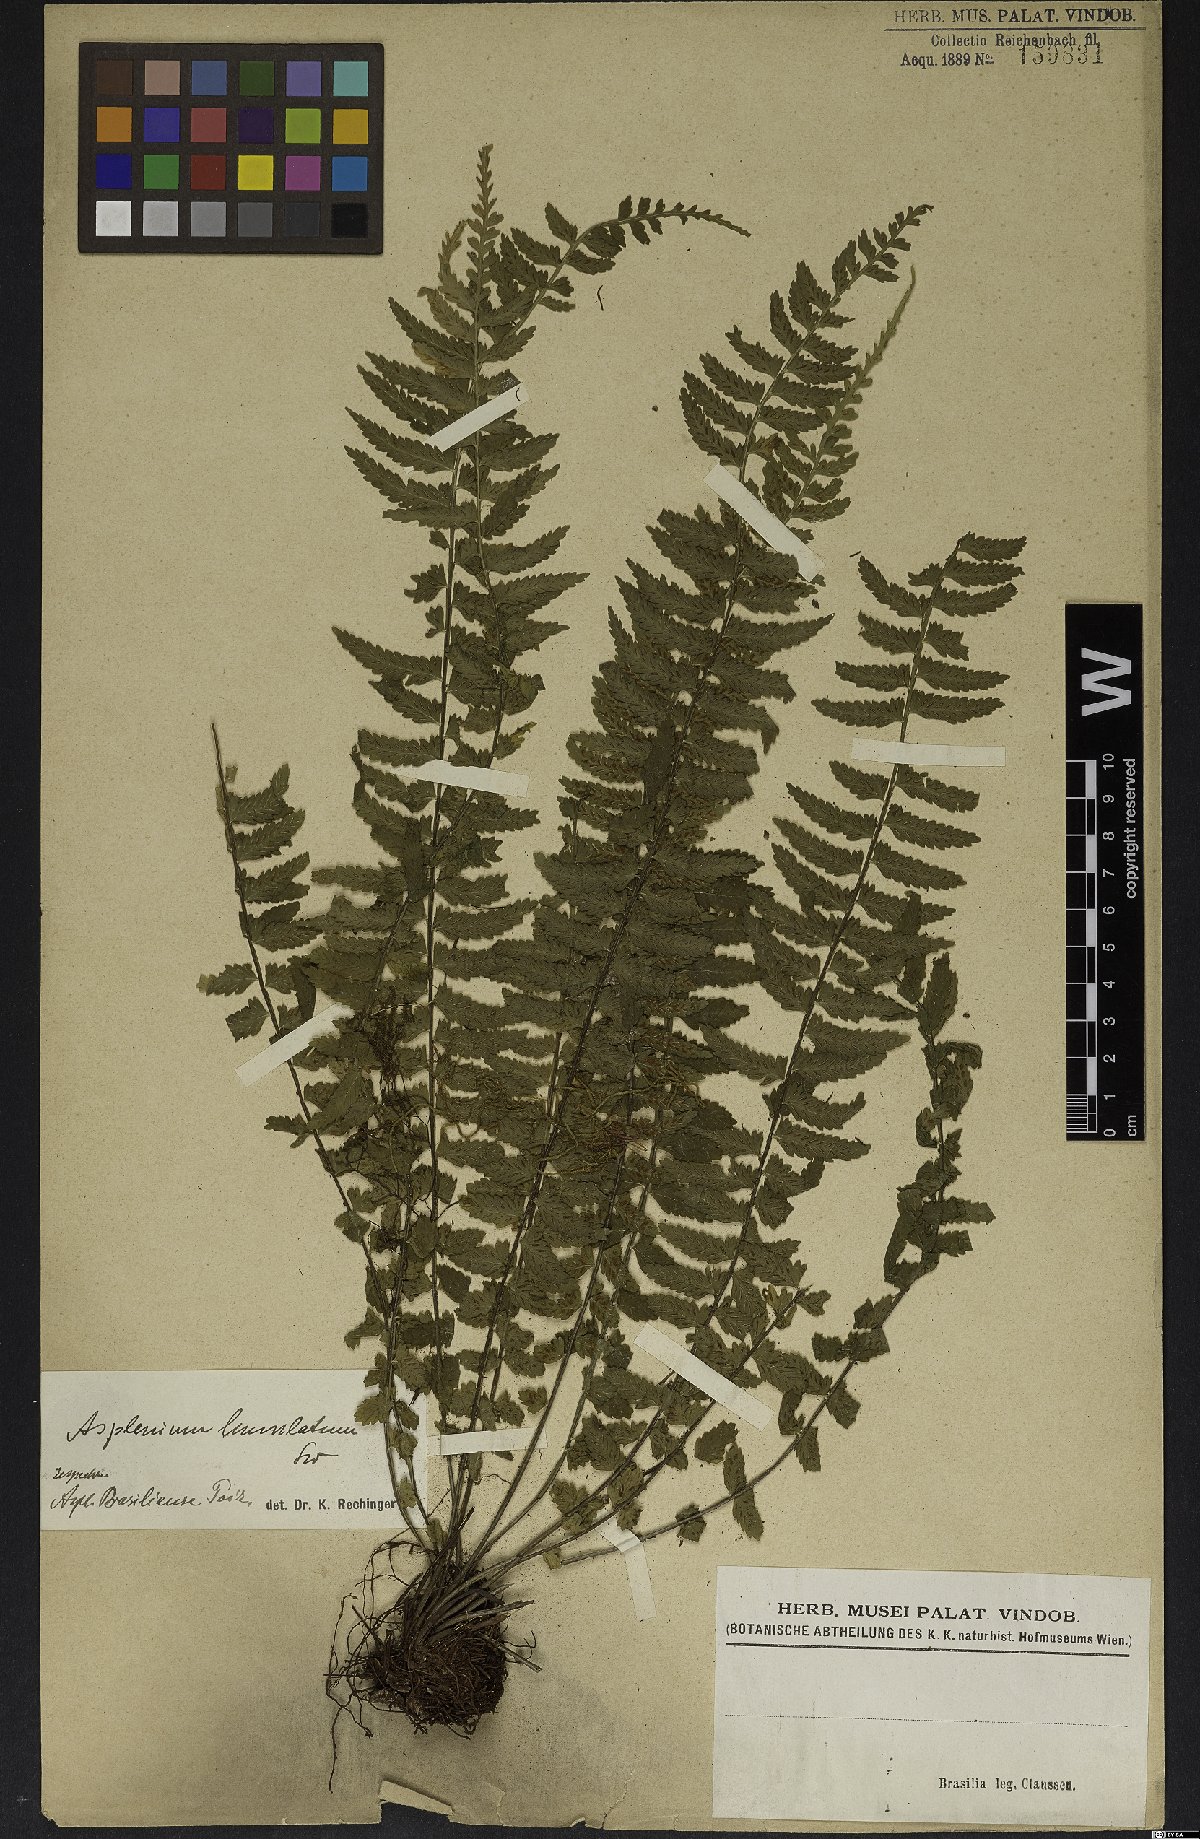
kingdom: Plantae
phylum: Tracheophyta
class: Polypodiopsida
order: Polypodiales
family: Aspleniaceae
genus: Asplenium
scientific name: Asplenium lunulatum
